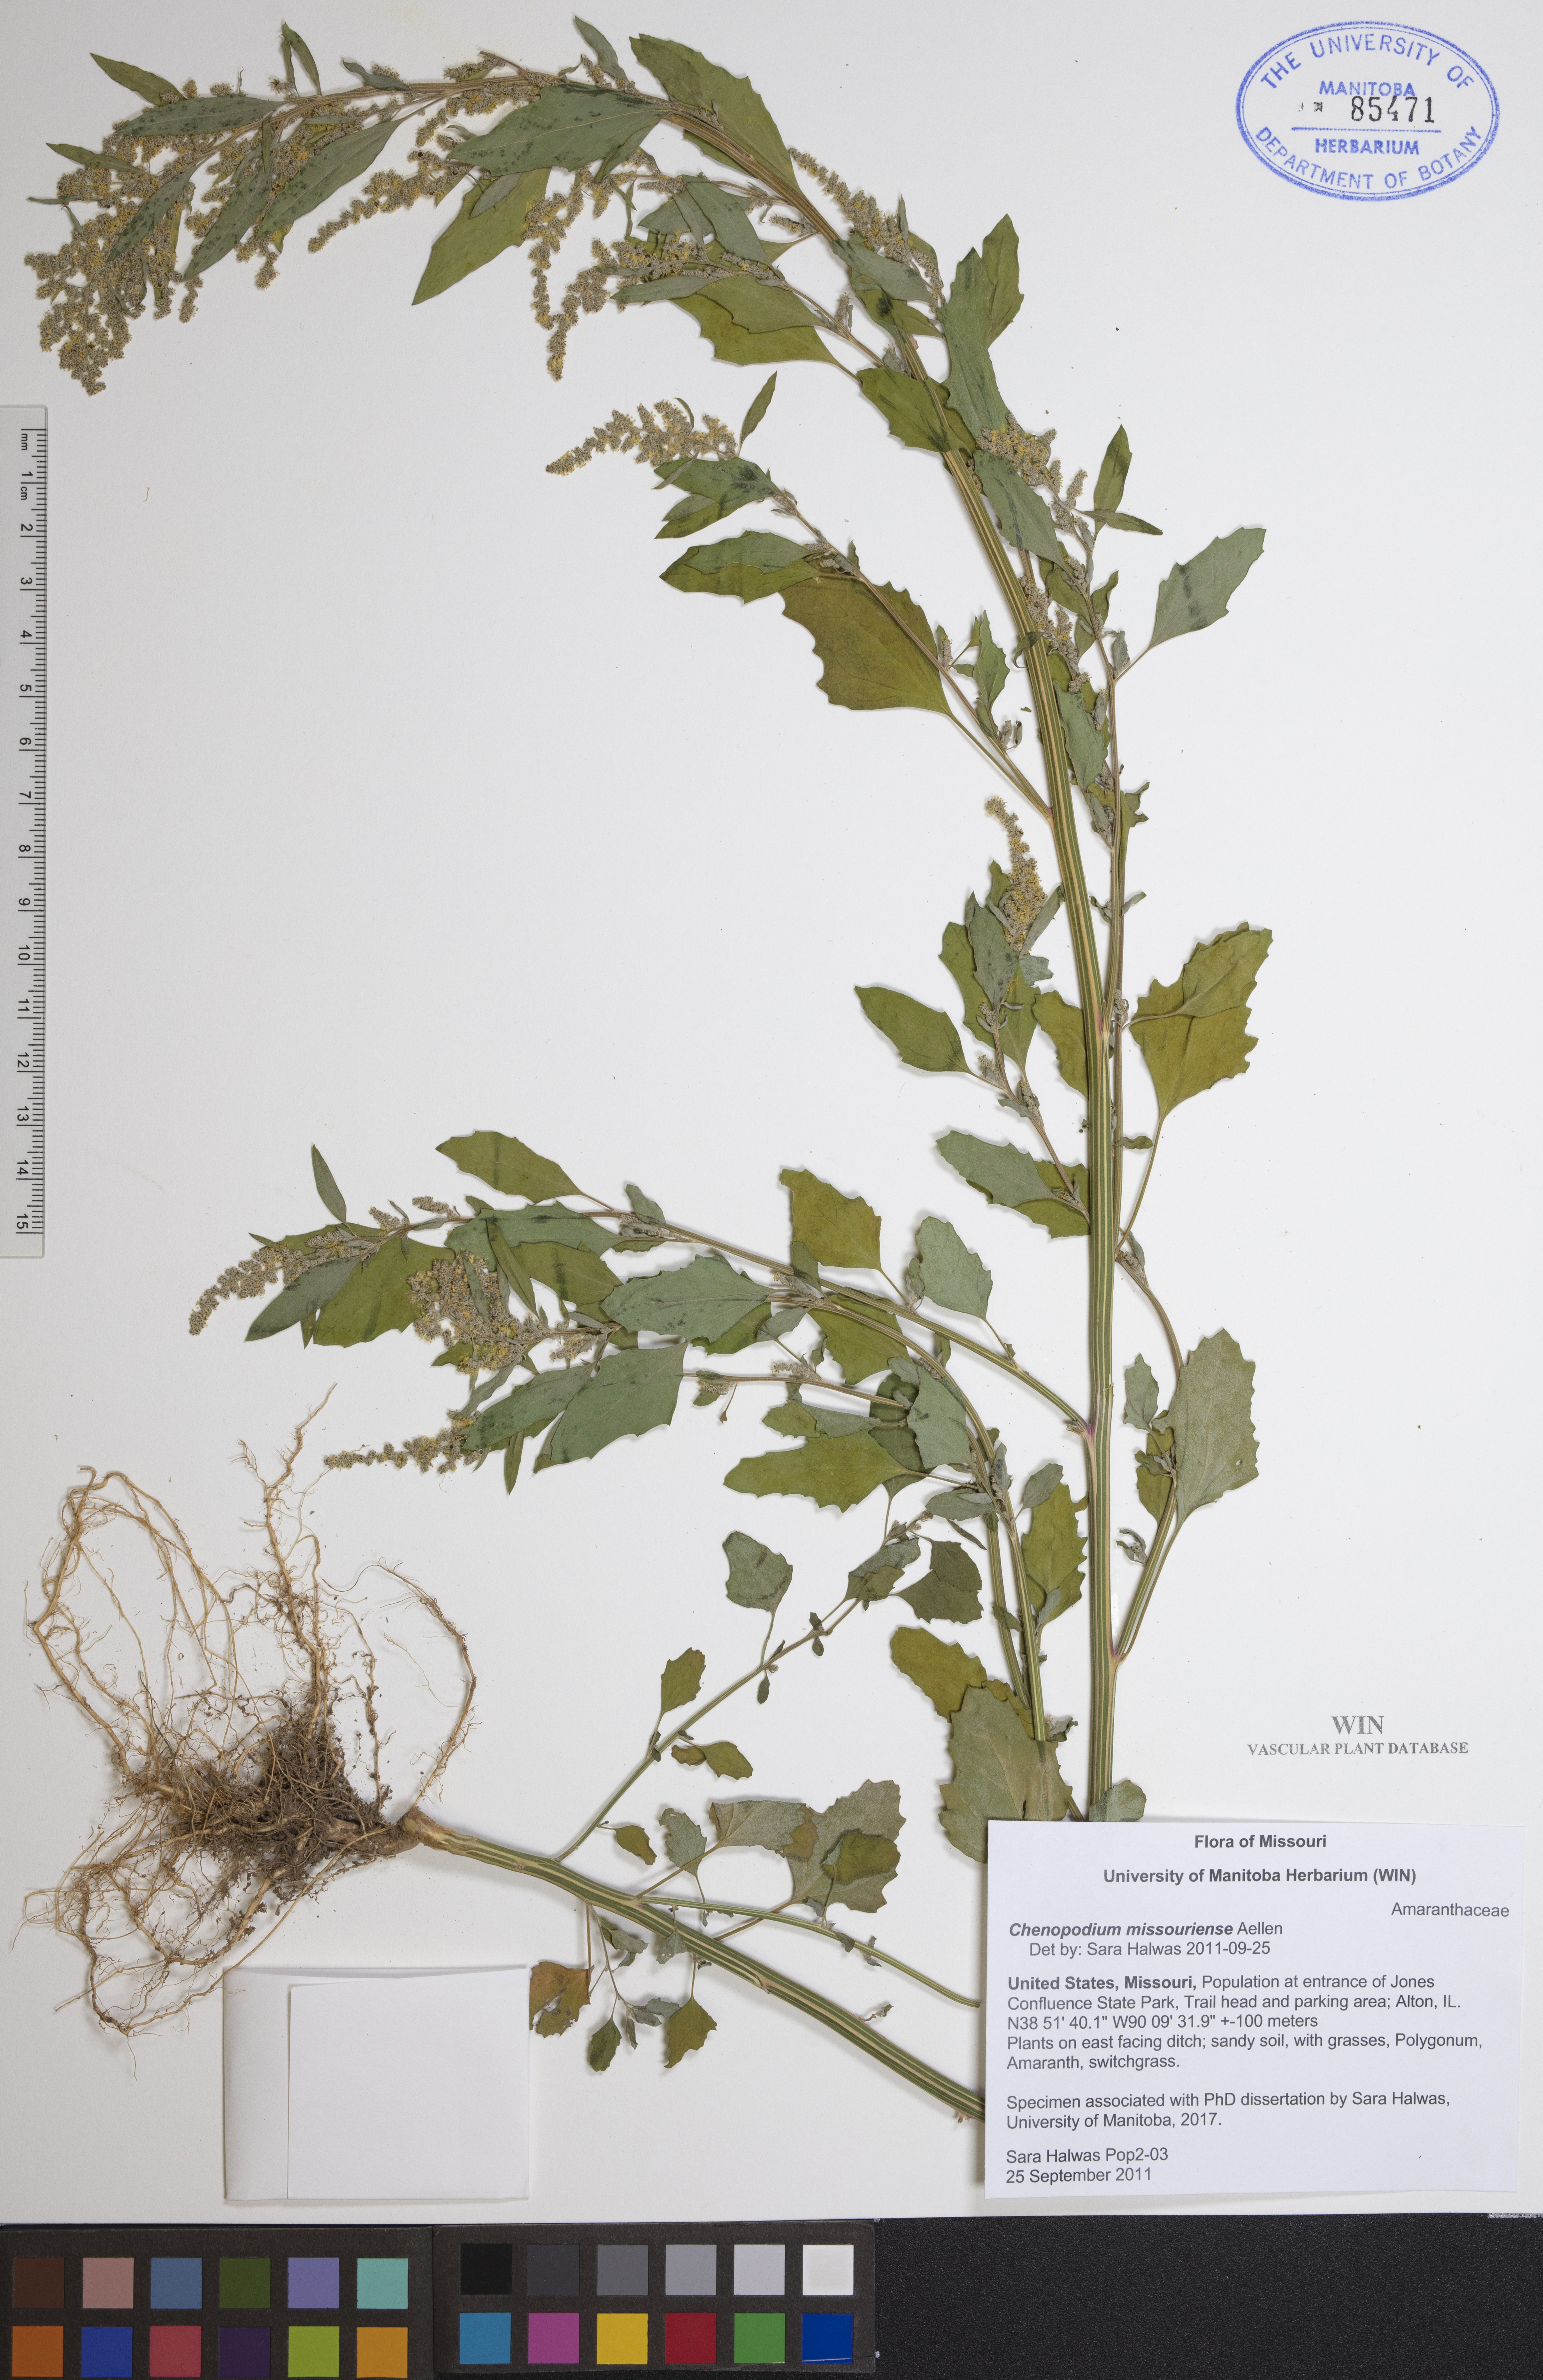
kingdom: Plantae
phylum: Tracheophyta
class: Magnoliopsida
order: Caryophyllales
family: Amaranthaceae
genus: Chenopodium
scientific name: Chenopodium album
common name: Fat-hen
